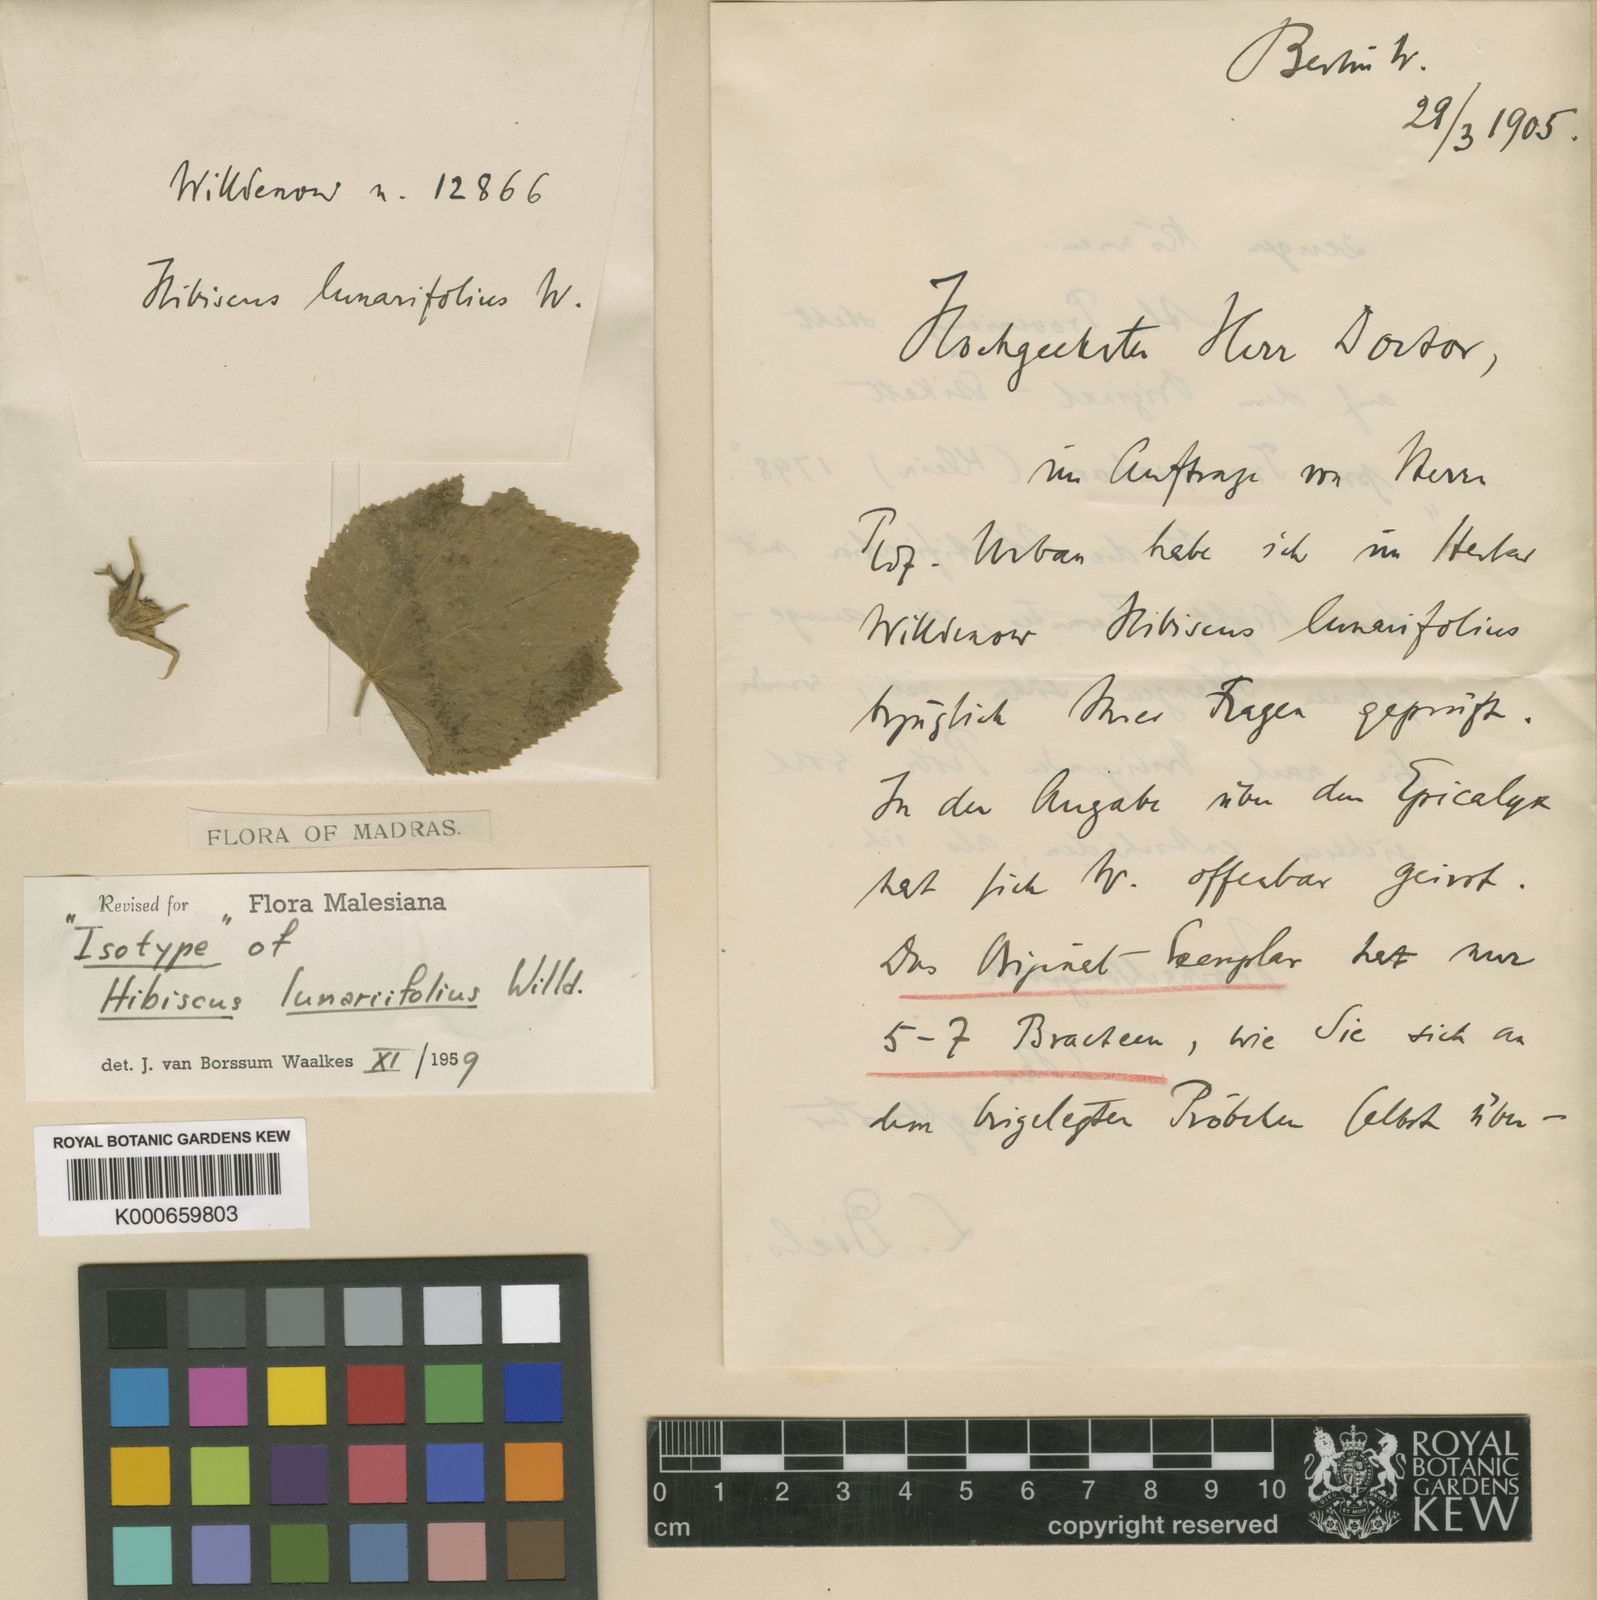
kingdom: Plantae
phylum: Tracheophyta
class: Magnoliopsida
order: Malvales
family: Malvaceae
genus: Hibiscus
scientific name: Hibiscus lunariifolius
